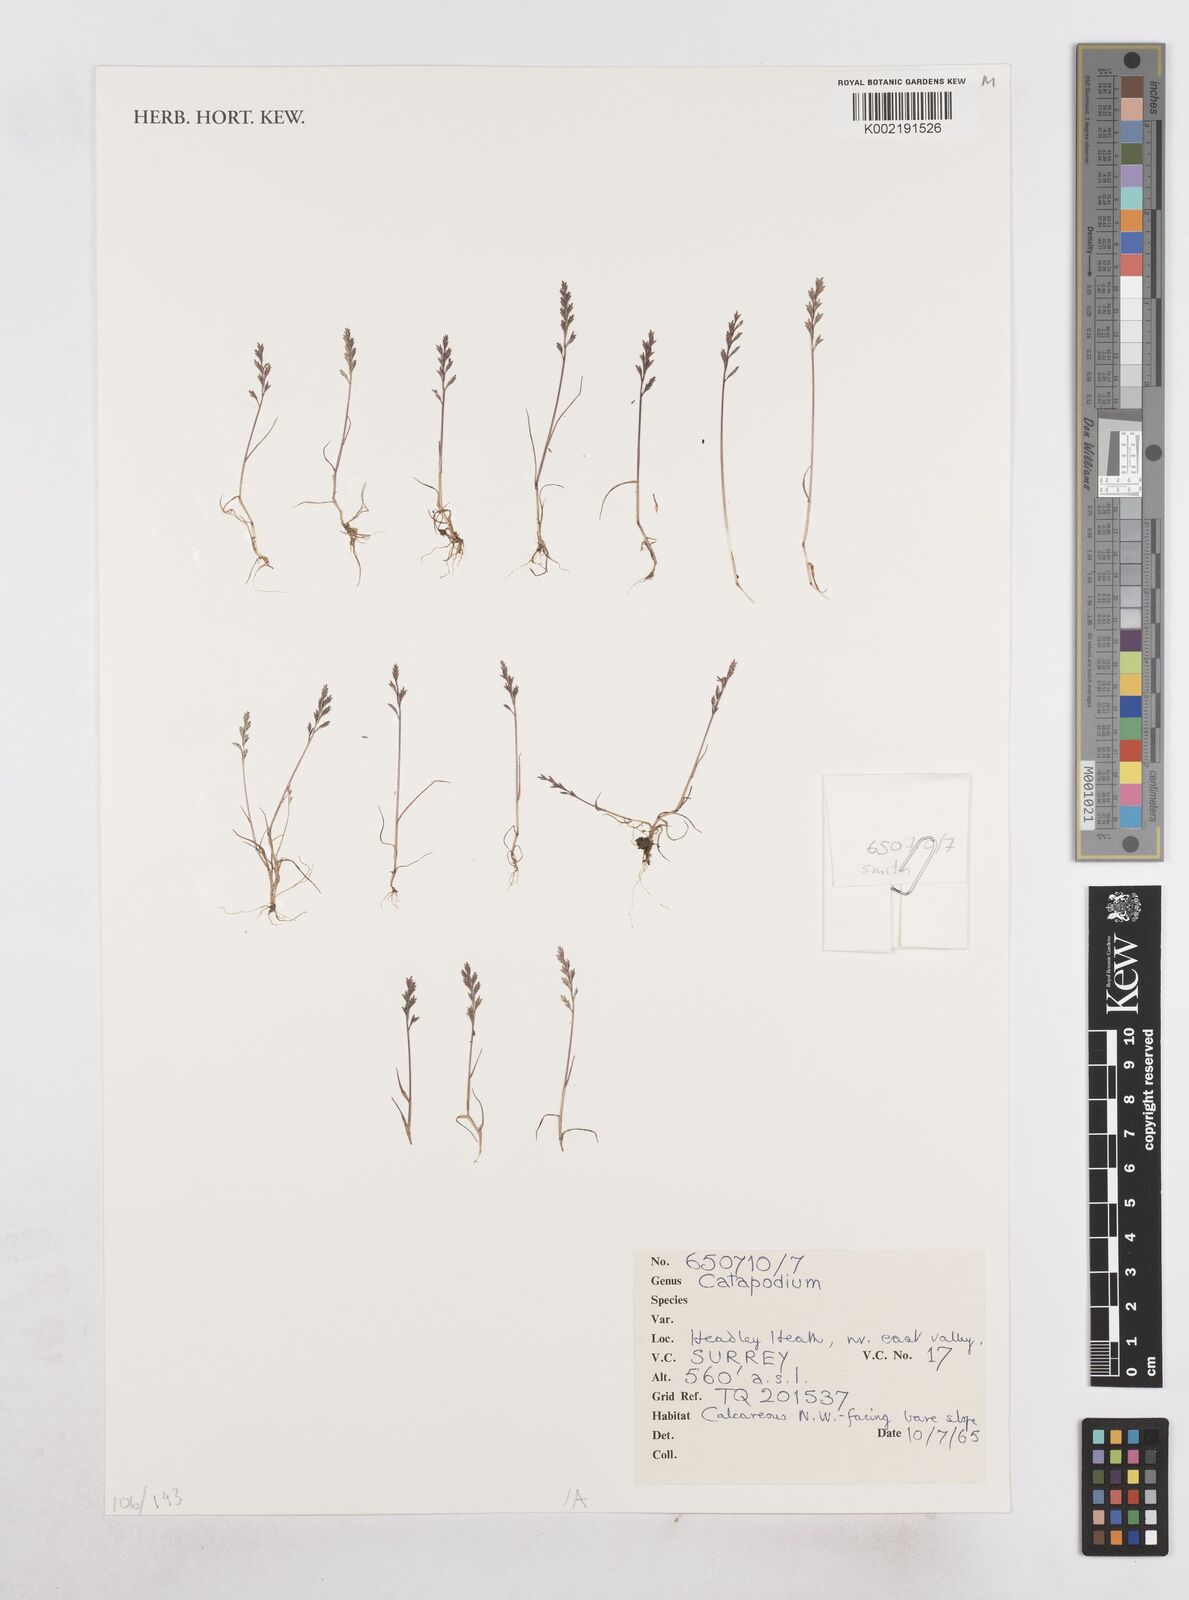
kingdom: Plantae
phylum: Tracheophyta
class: Liliopsida
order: Poales
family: Poaceae
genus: Catapodium
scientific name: Catapodium
